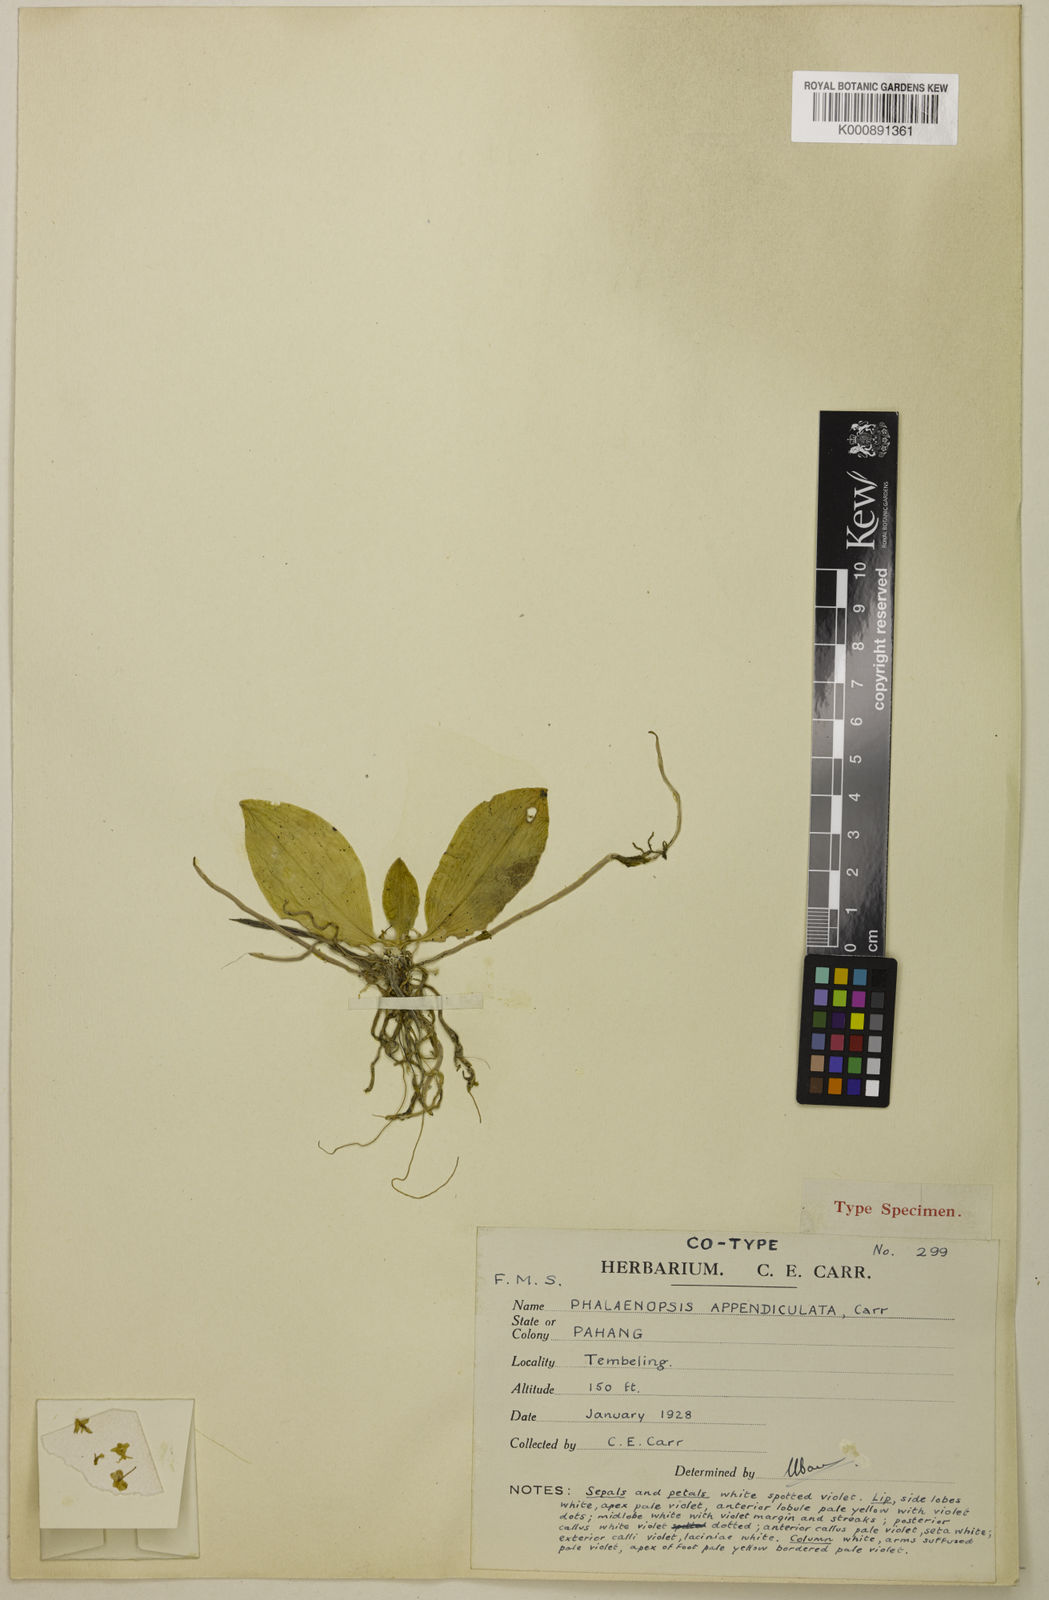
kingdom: Plantae
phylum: Tracheophyta
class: Liliopsida
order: Asparagales
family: Orchidaceae
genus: Phalaenopsis
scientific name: Phalaenopsis appendiculata
